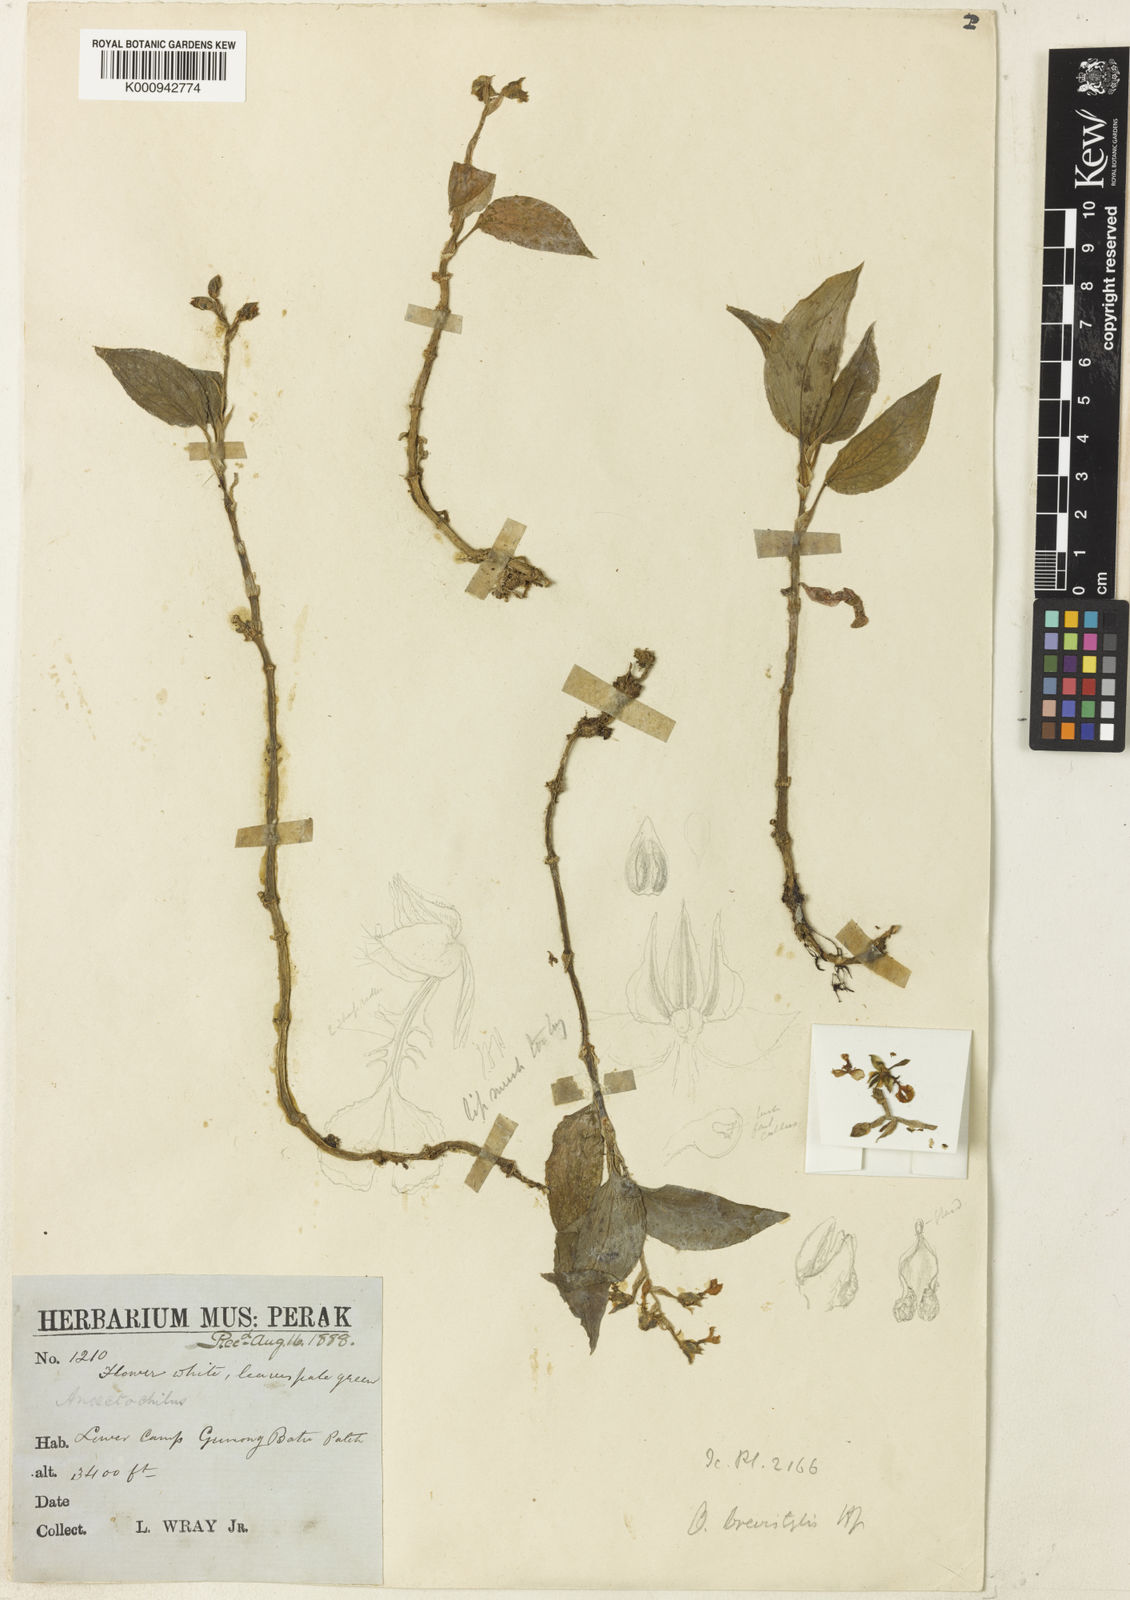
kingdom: Plantae
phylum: Tracheophyta
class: Liliopsida
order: Asparagales
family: Orchidaceae
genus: Odontochilus
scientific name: Odontochilus
